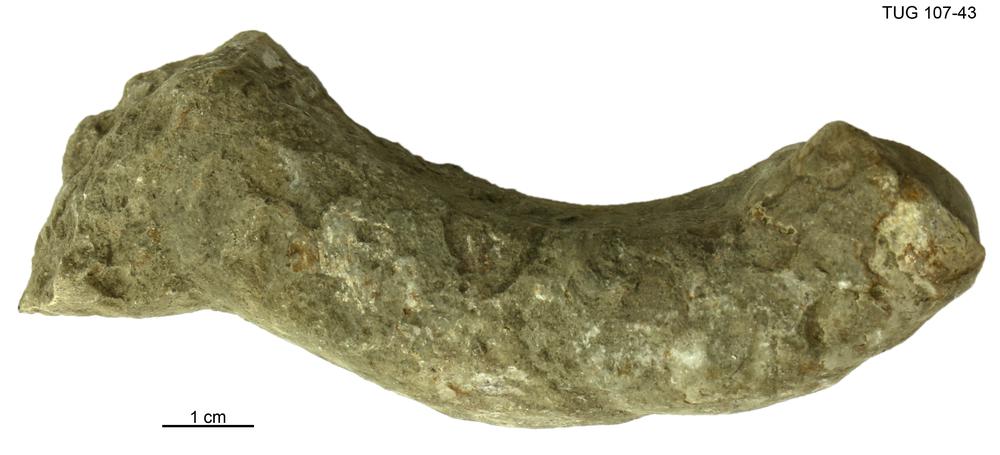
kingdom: Animalia
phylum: Mollusca
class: Cephalopoda
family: Trocholitidae
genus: Discoceras
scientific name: Discoceras
